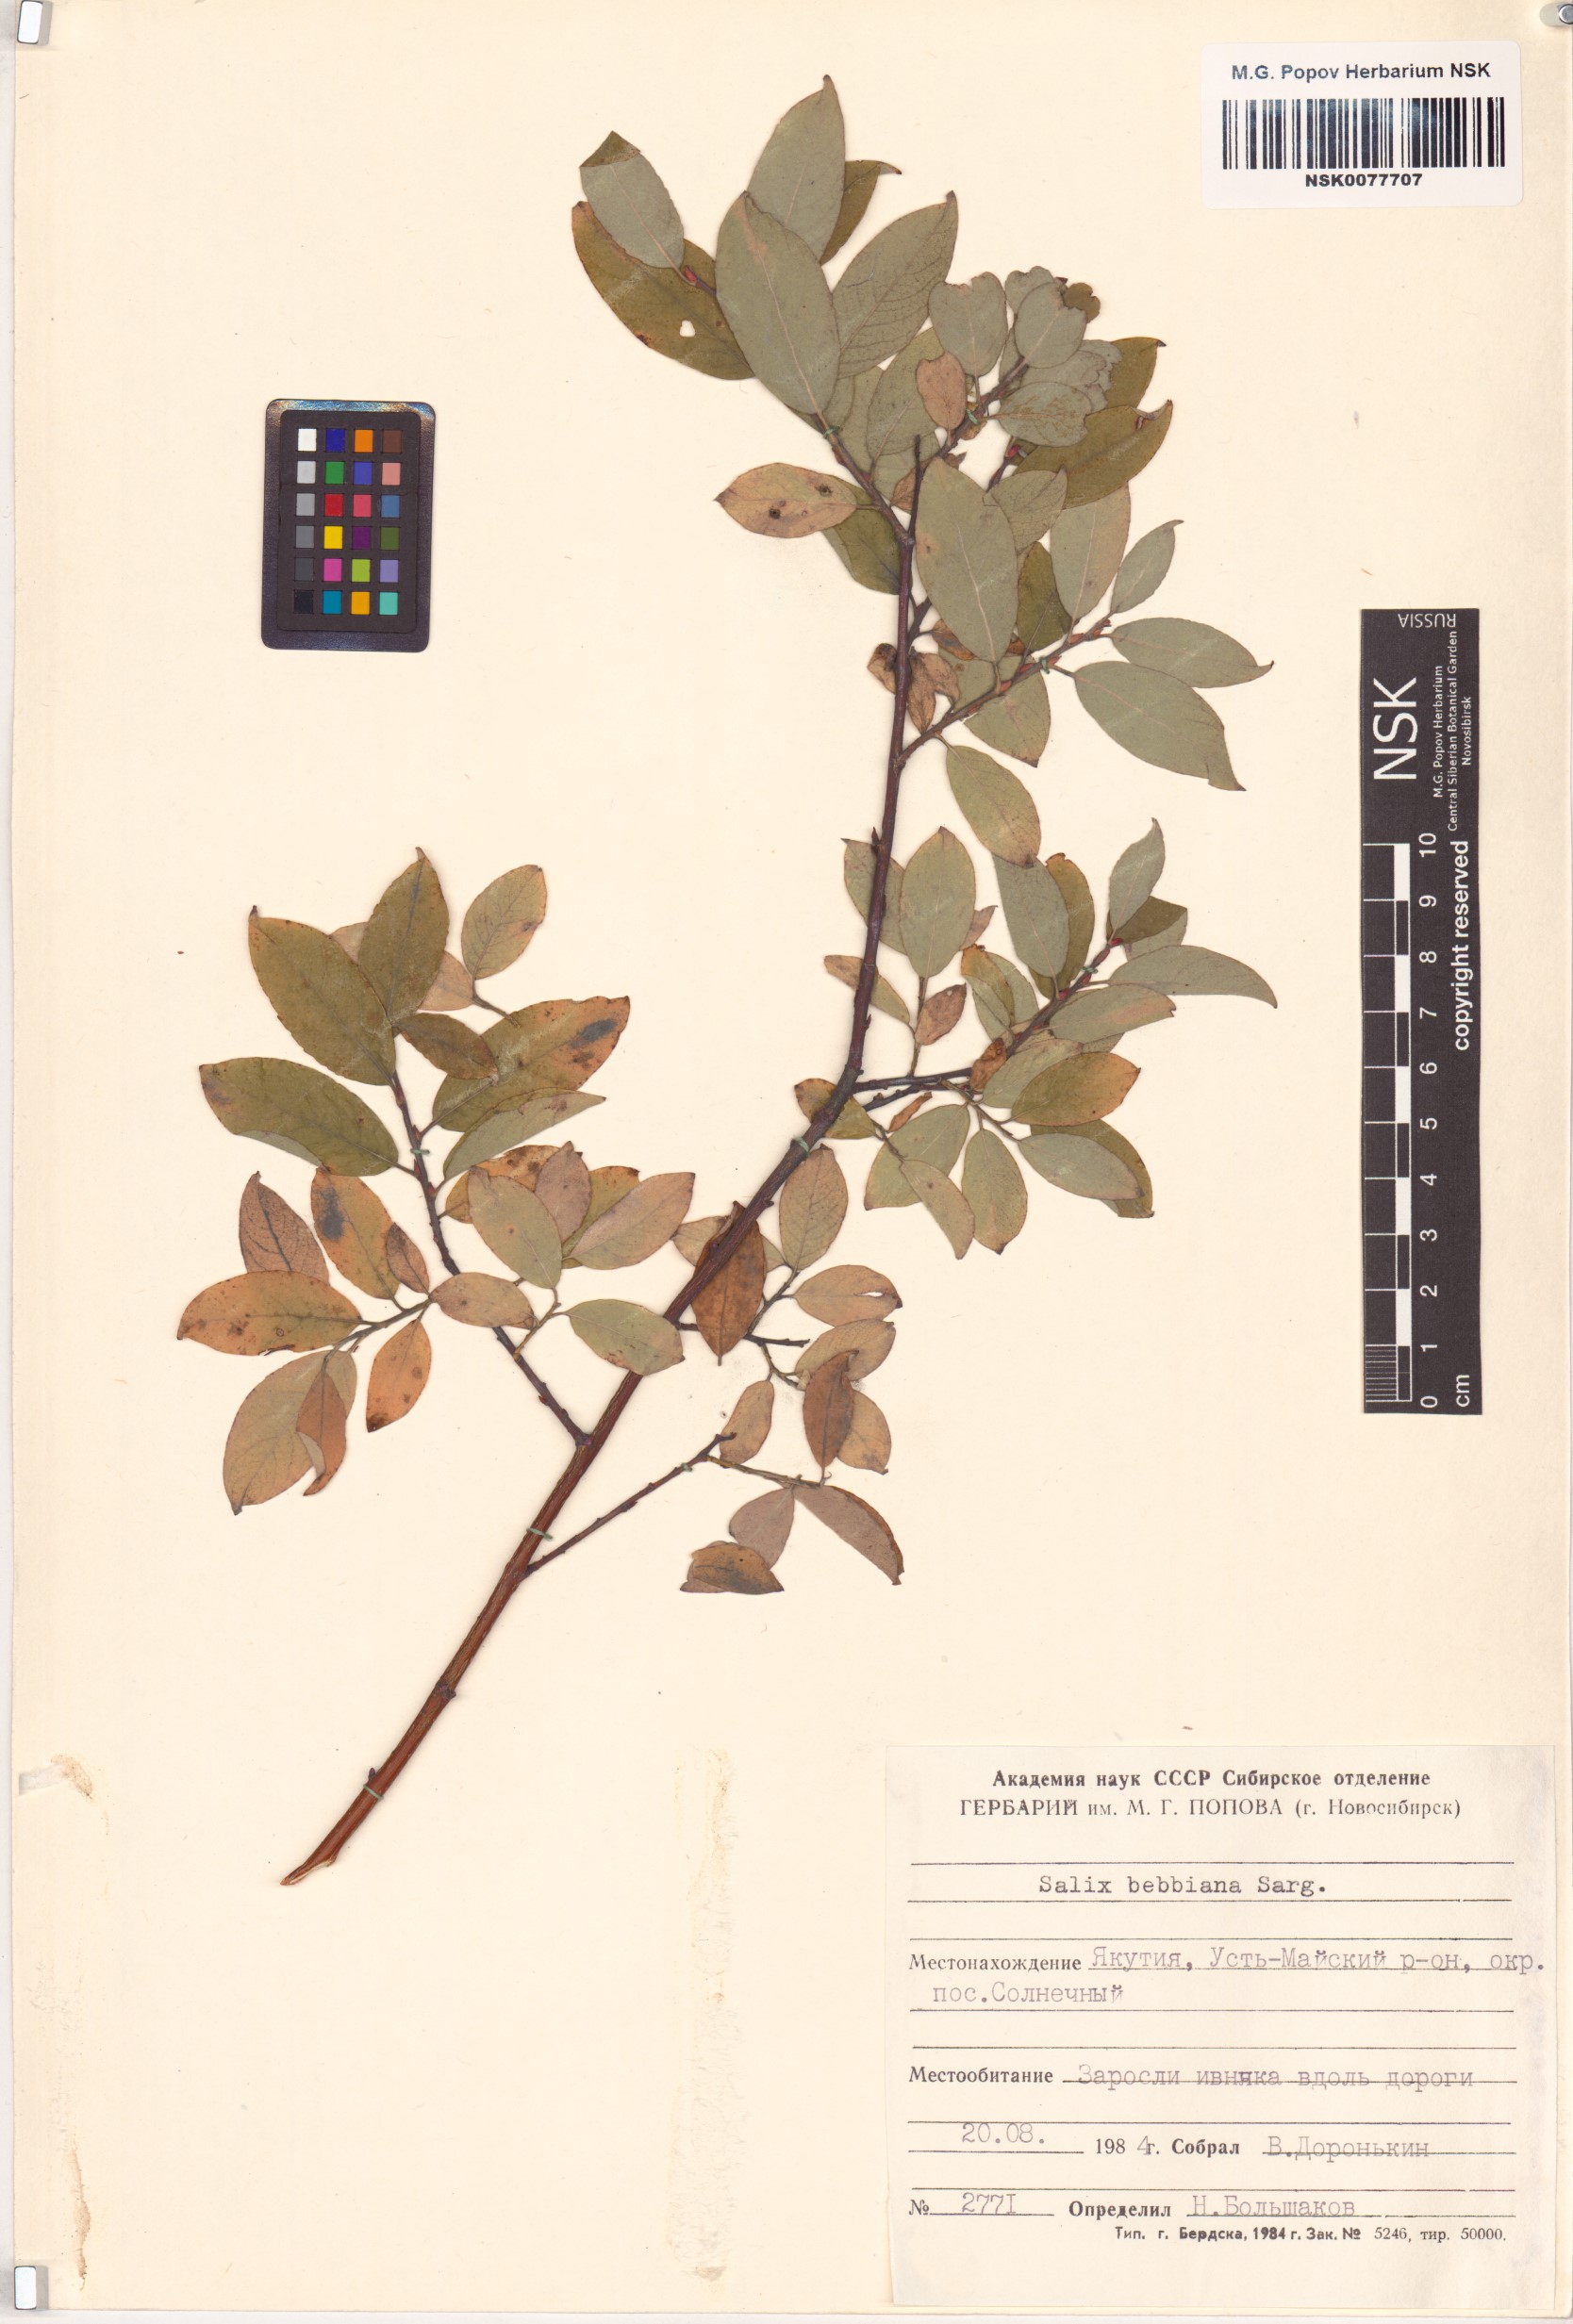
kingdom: Plantae
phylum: Tracheophyta
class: Magnoliopsida
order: Malpighiales
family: Salicaceae
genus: Salix
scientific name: Salix bebbiana
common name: Bebb's willow
